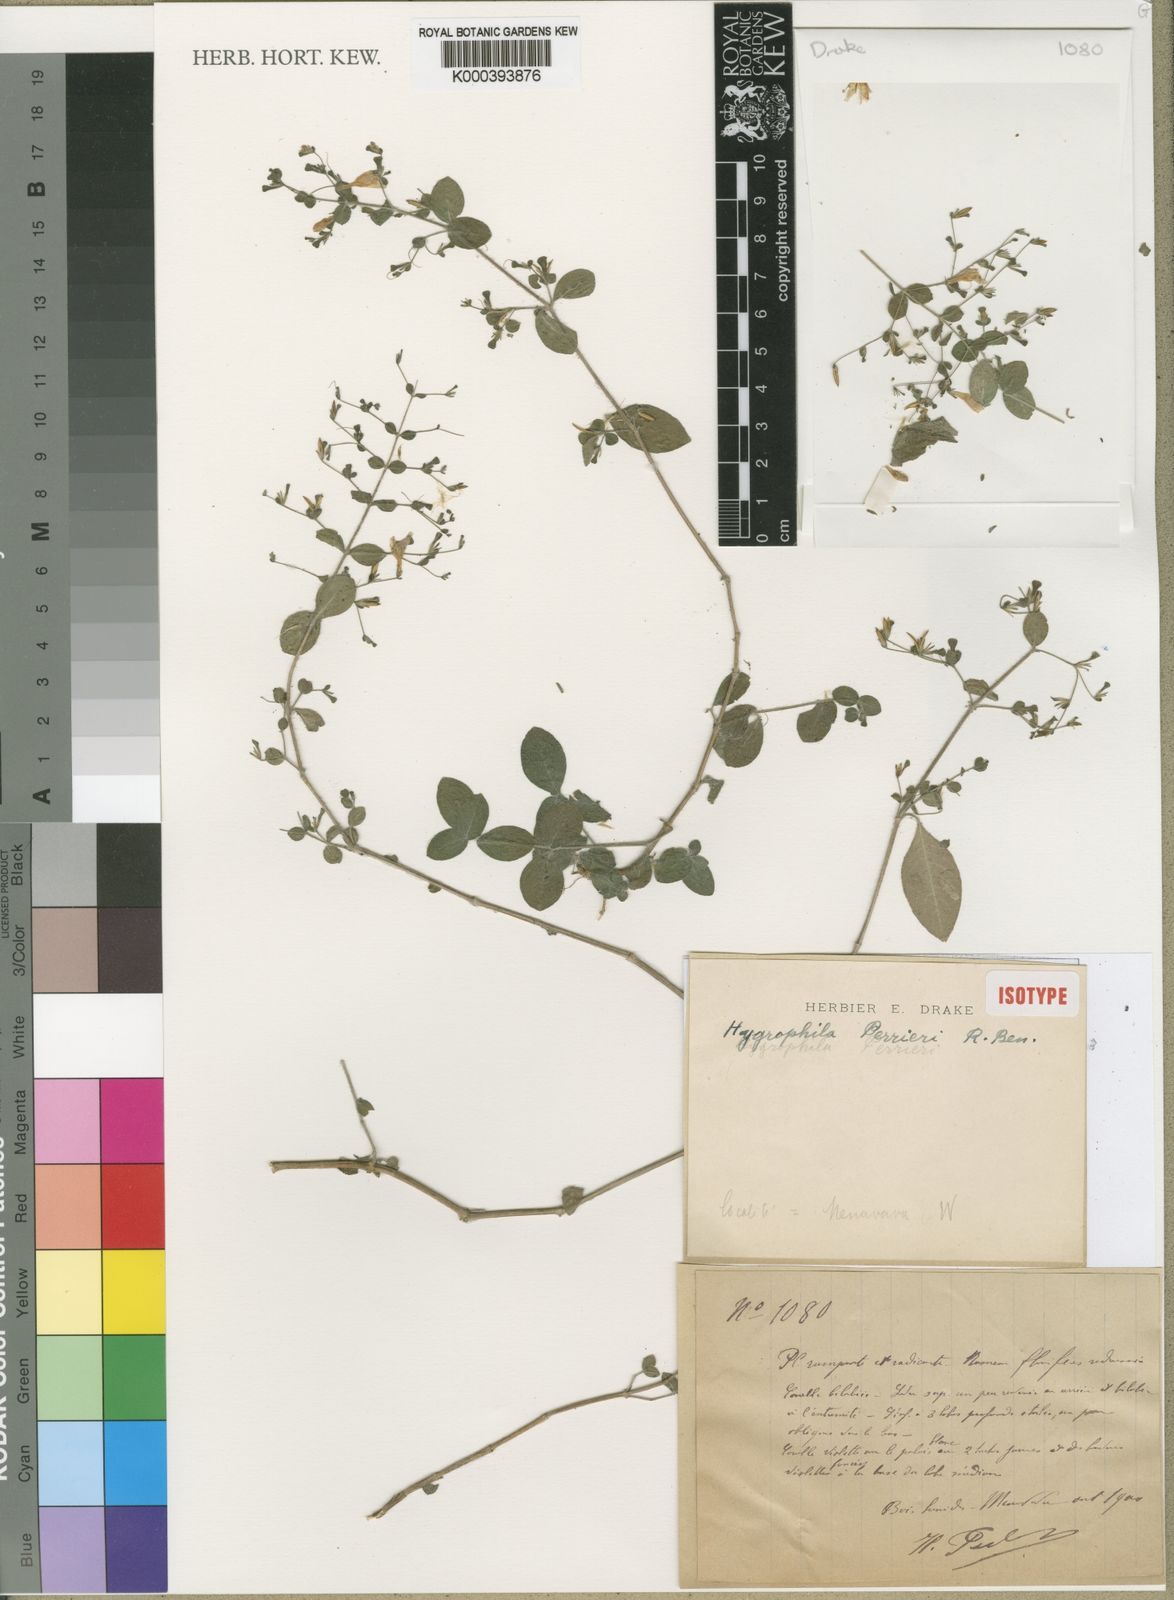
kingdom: Plantae
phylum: Tracheophyta
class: Magnoliopsida
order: Lamiales
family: Acanthaceae
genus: Hygrophila
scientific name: Hygrophila perrieri
